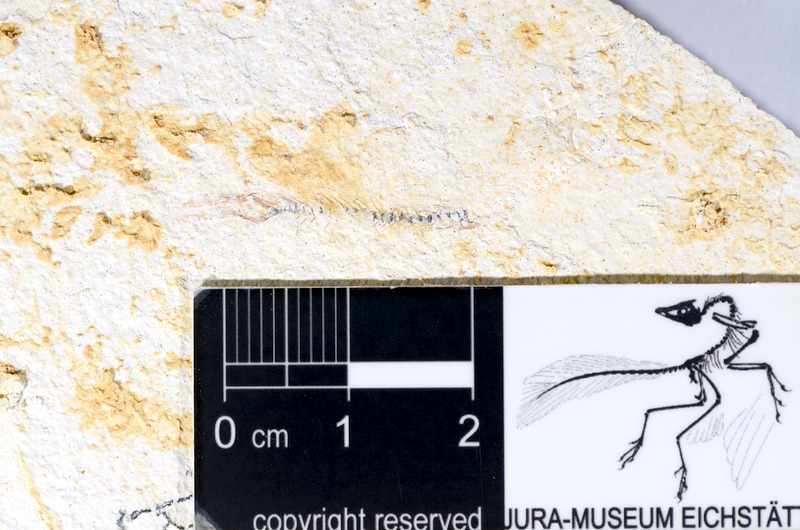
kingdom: Animalia
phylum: Chordata
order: Salmoniformes
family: Orthogonikleithridae
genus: Orthogonikleithrus
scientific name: Orthogonikleithrus hoelli
